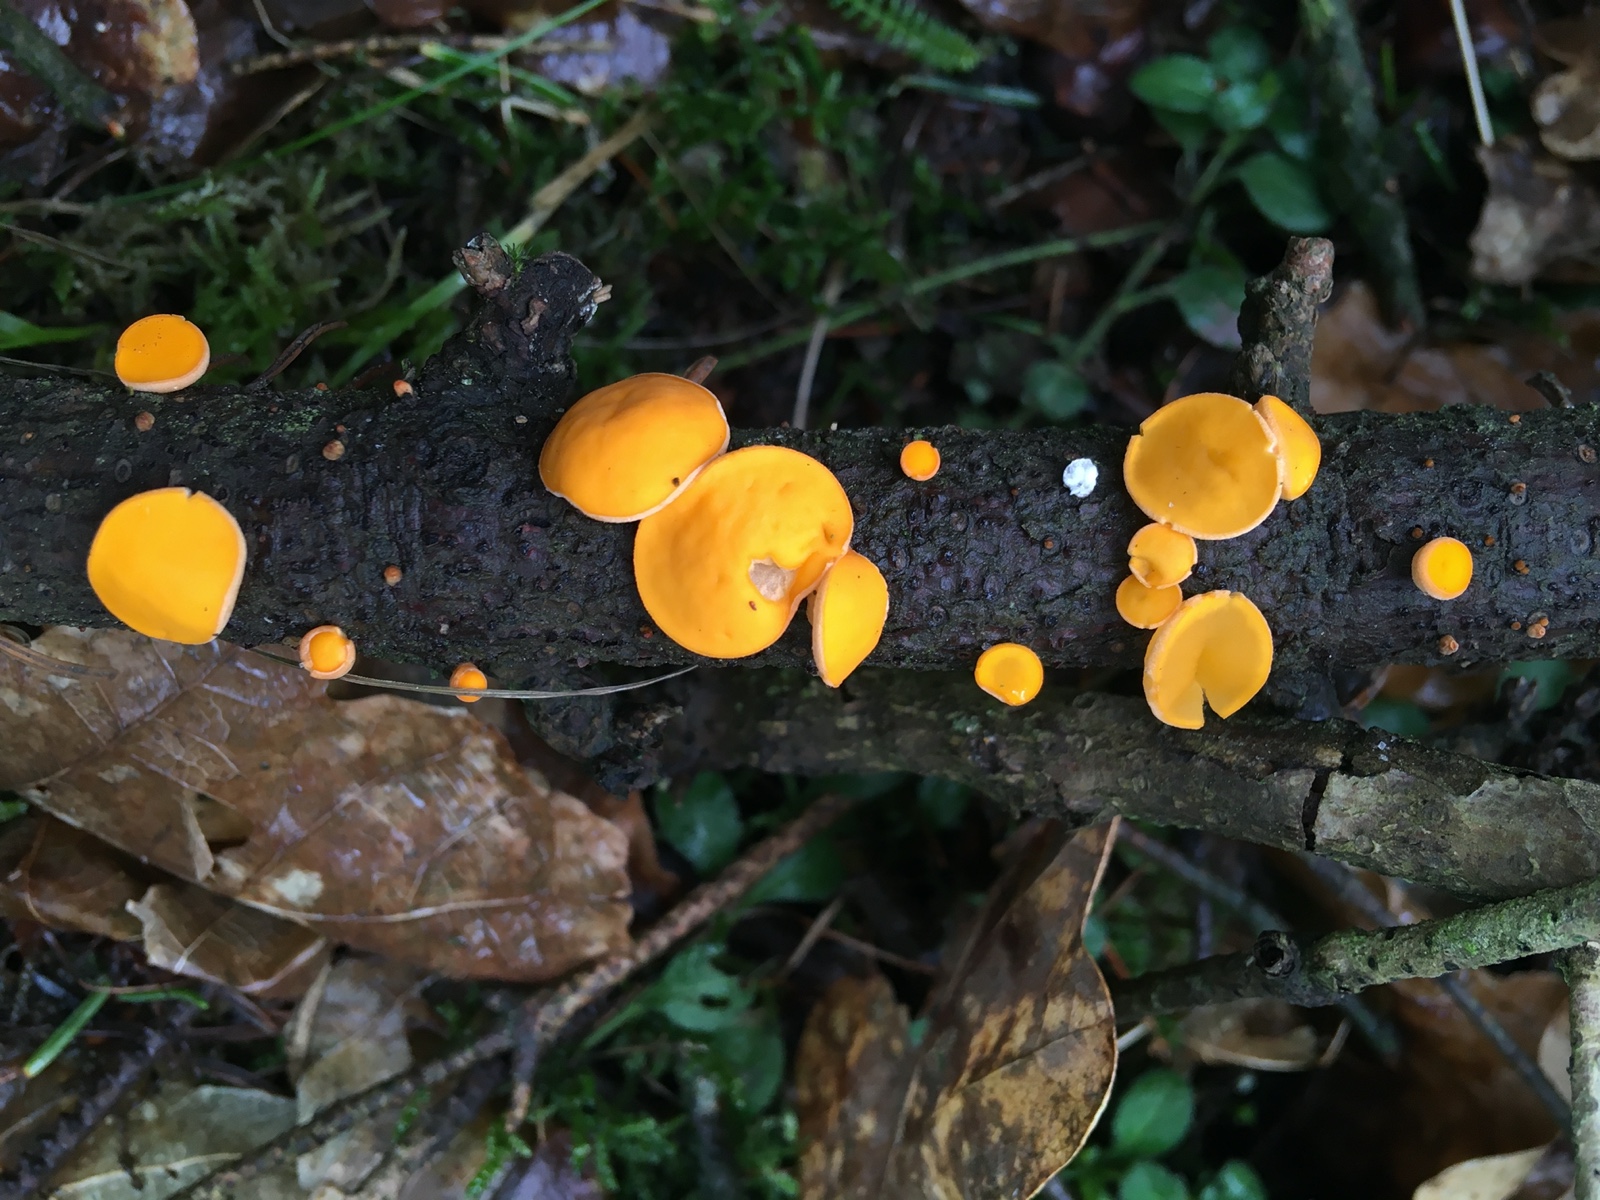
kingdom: Fungi
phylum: Ascomycota
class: Pezizomycetes
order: Pezizales
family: Sarcoscyphaceae
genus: Pithya
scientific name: Pithya vulgaris
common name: stor dukatbæger
